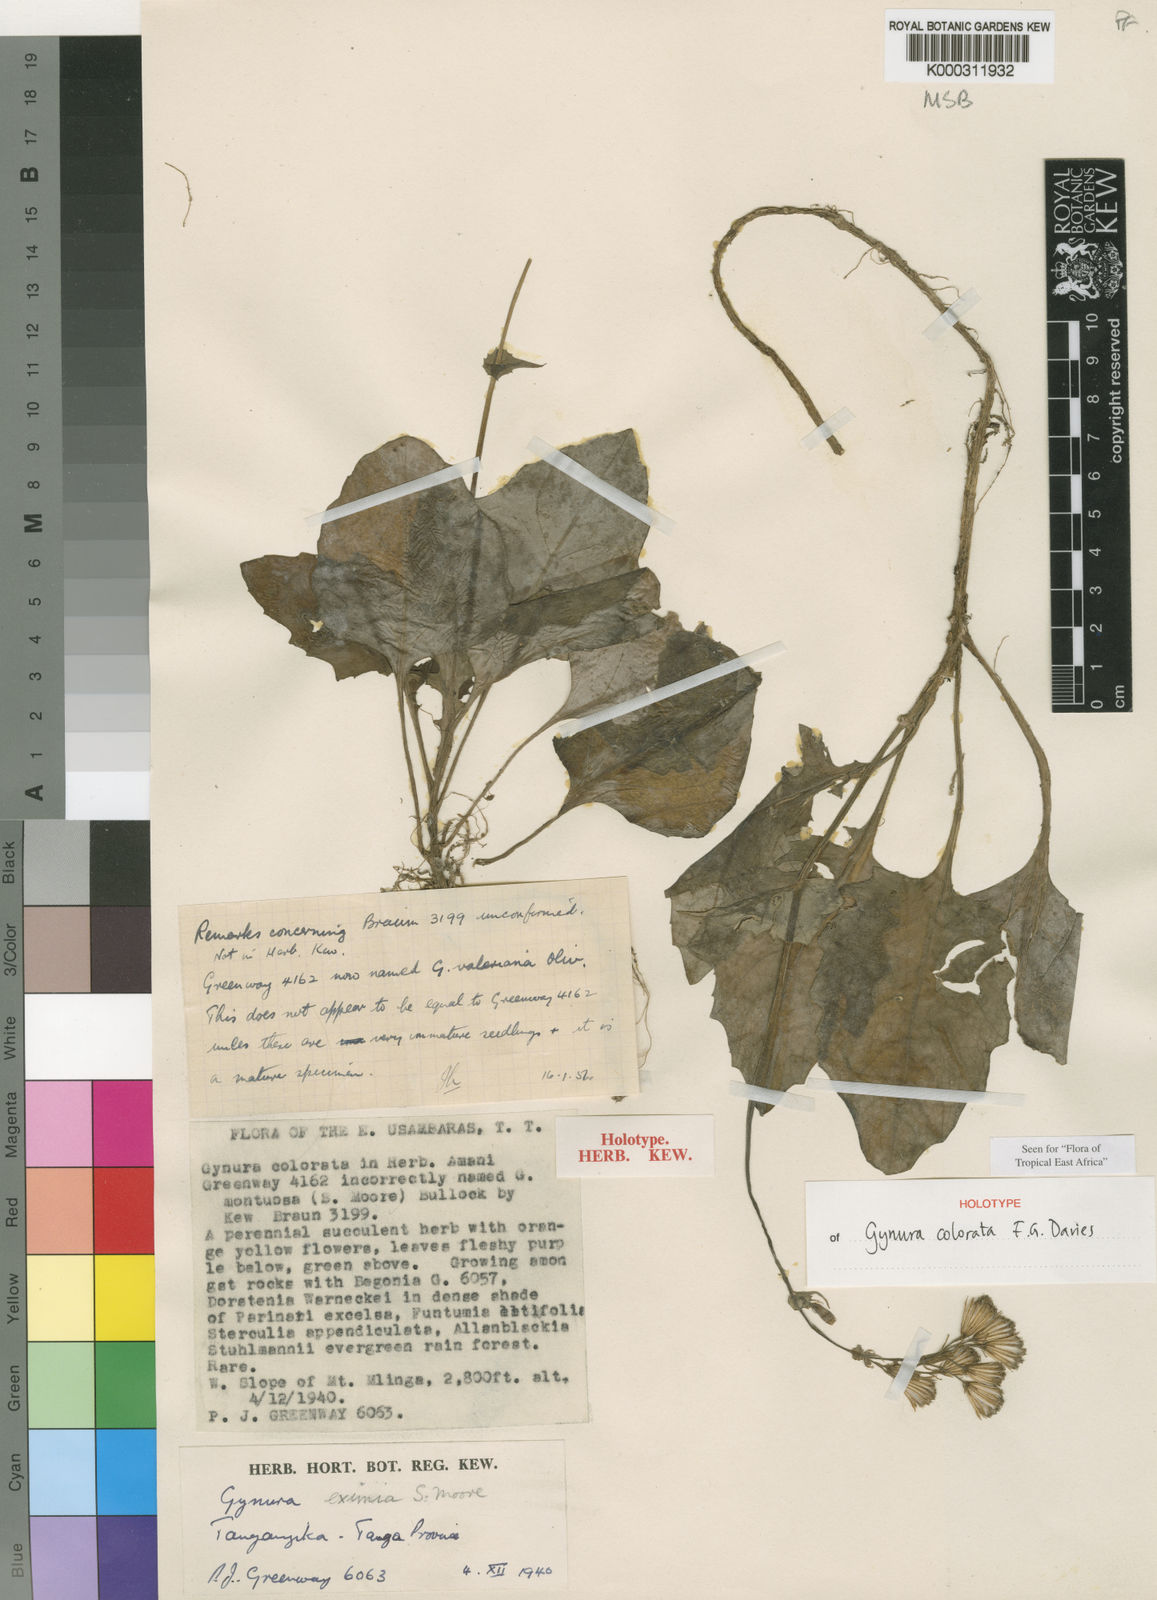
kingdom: Plantae
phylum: Tracheophyta
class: Magnoliopsida
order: Asterales
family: Asteraceae
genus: Gynura
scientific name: Gynura colorata
